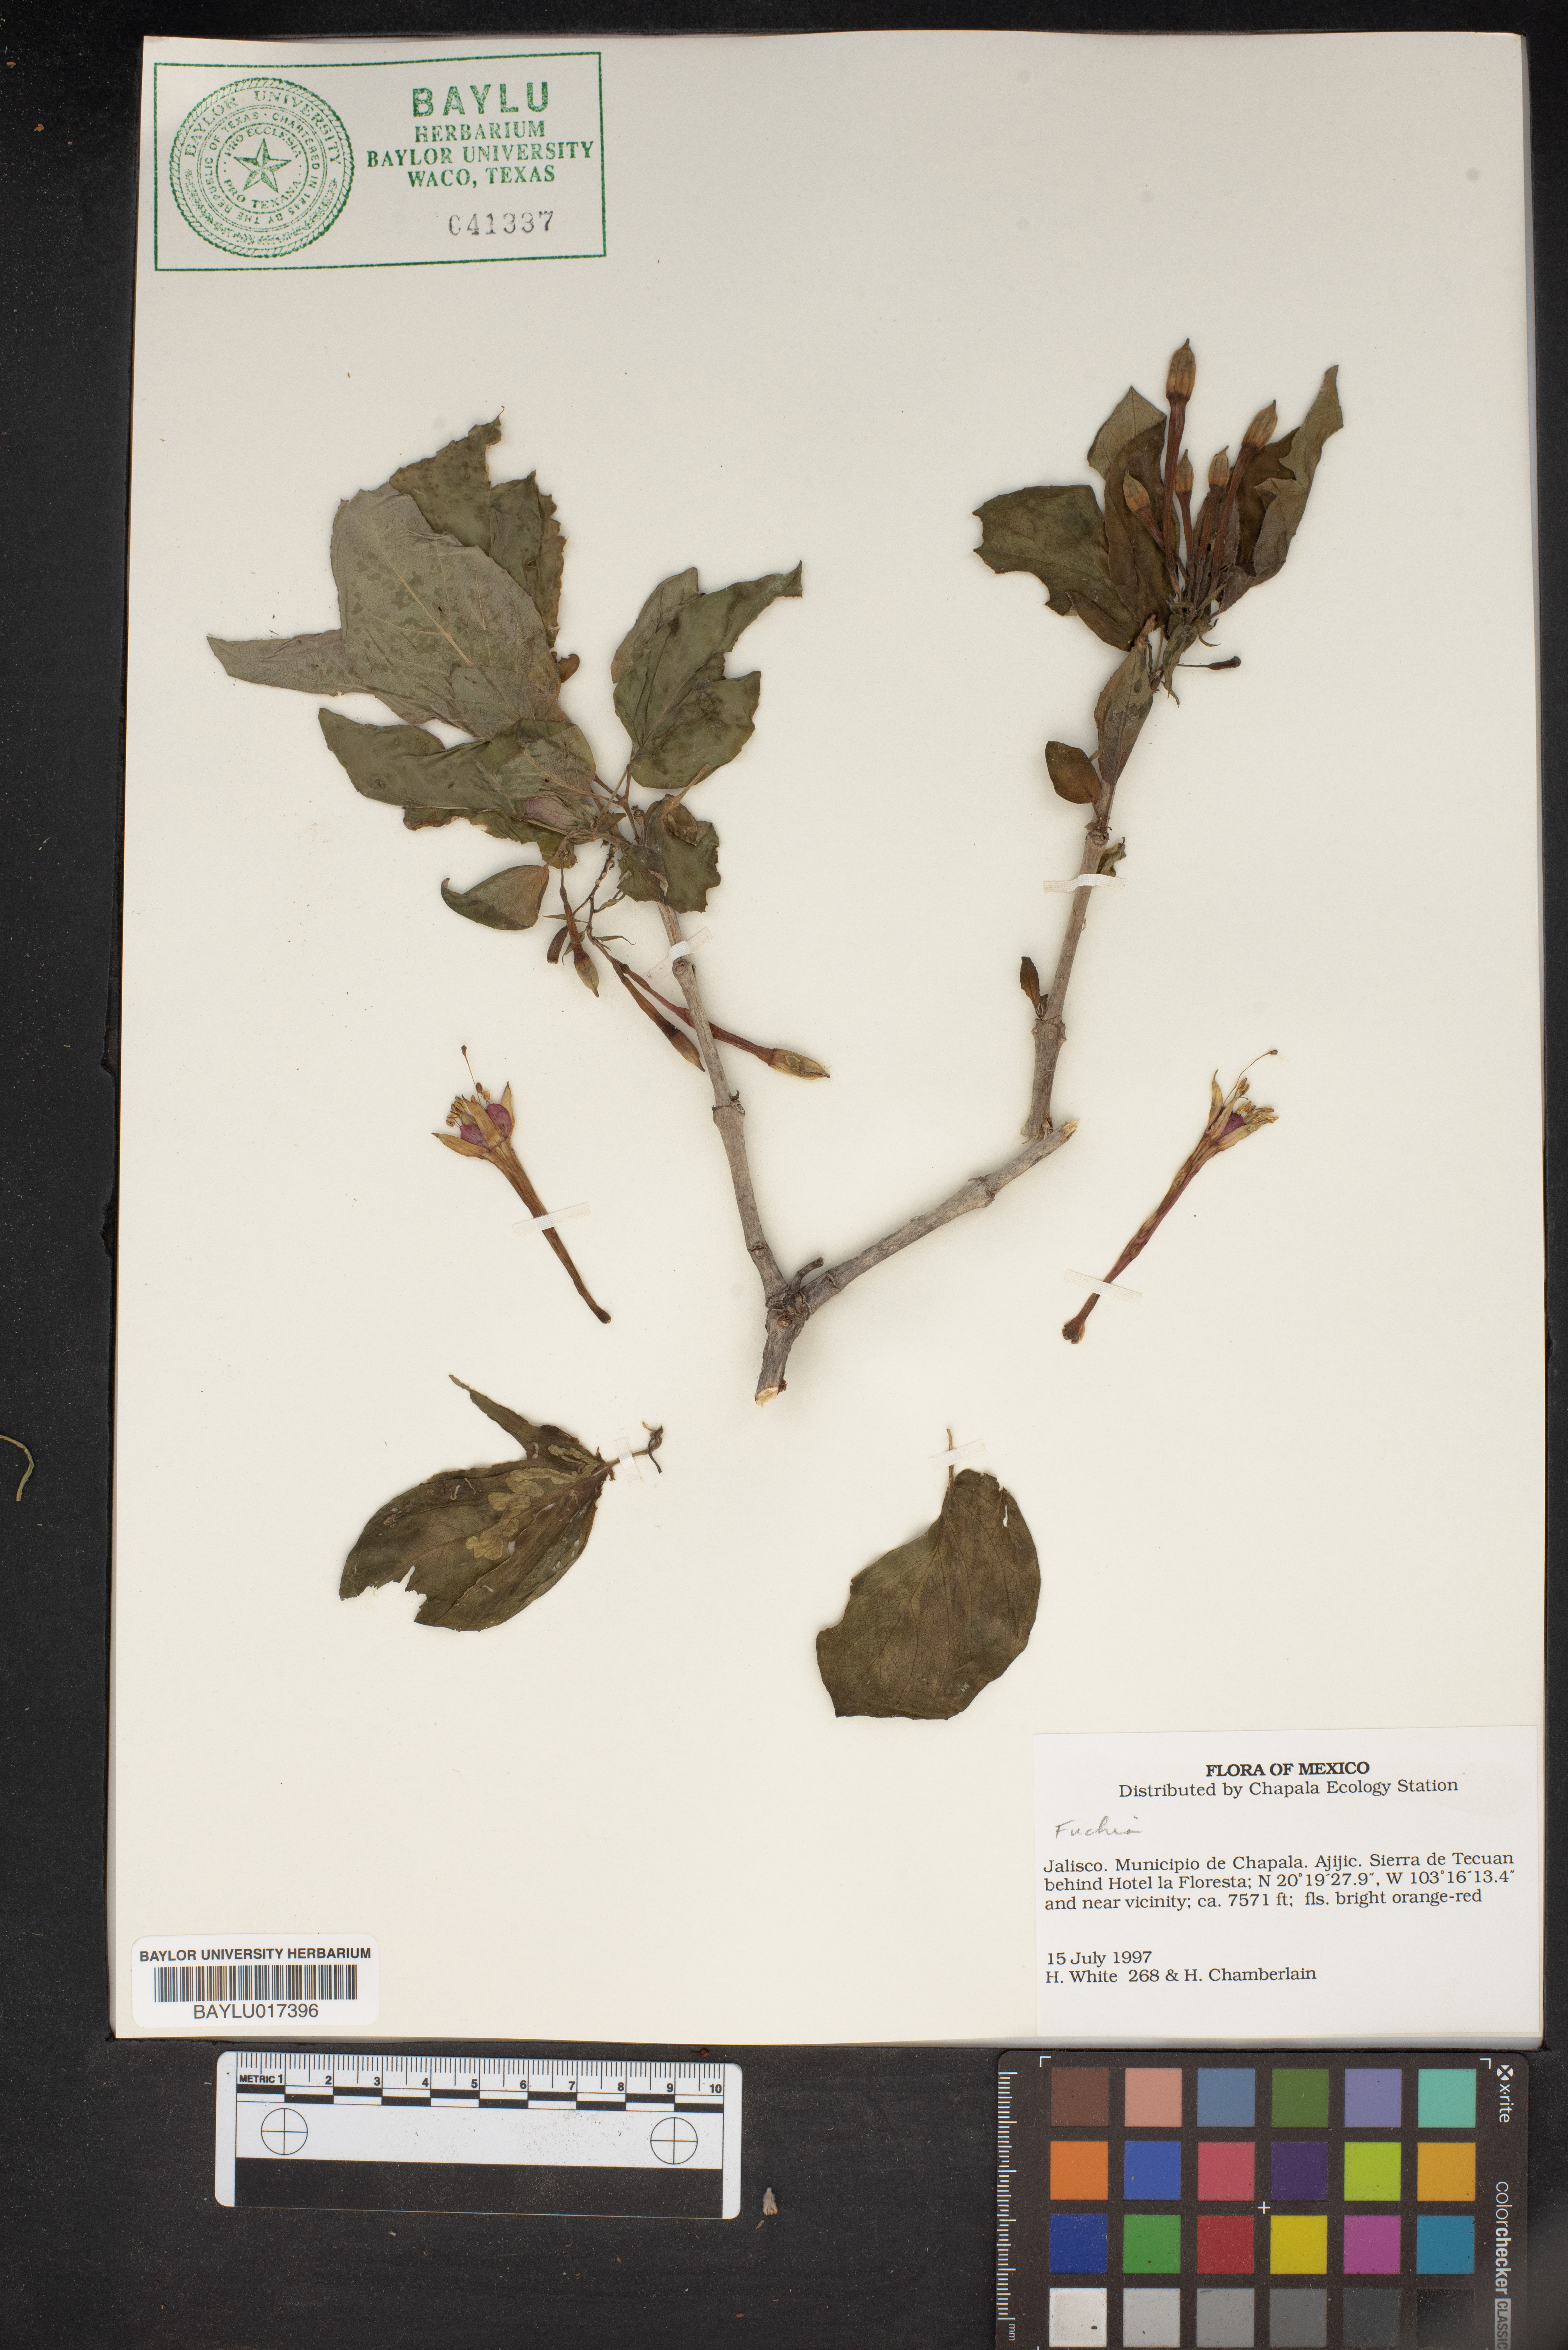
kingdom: Plantae
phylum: Tracheophyta
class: Magnoliopsida
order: Myrtales
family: Onagraceae
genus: Fuchsia
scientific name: Fuchsia
